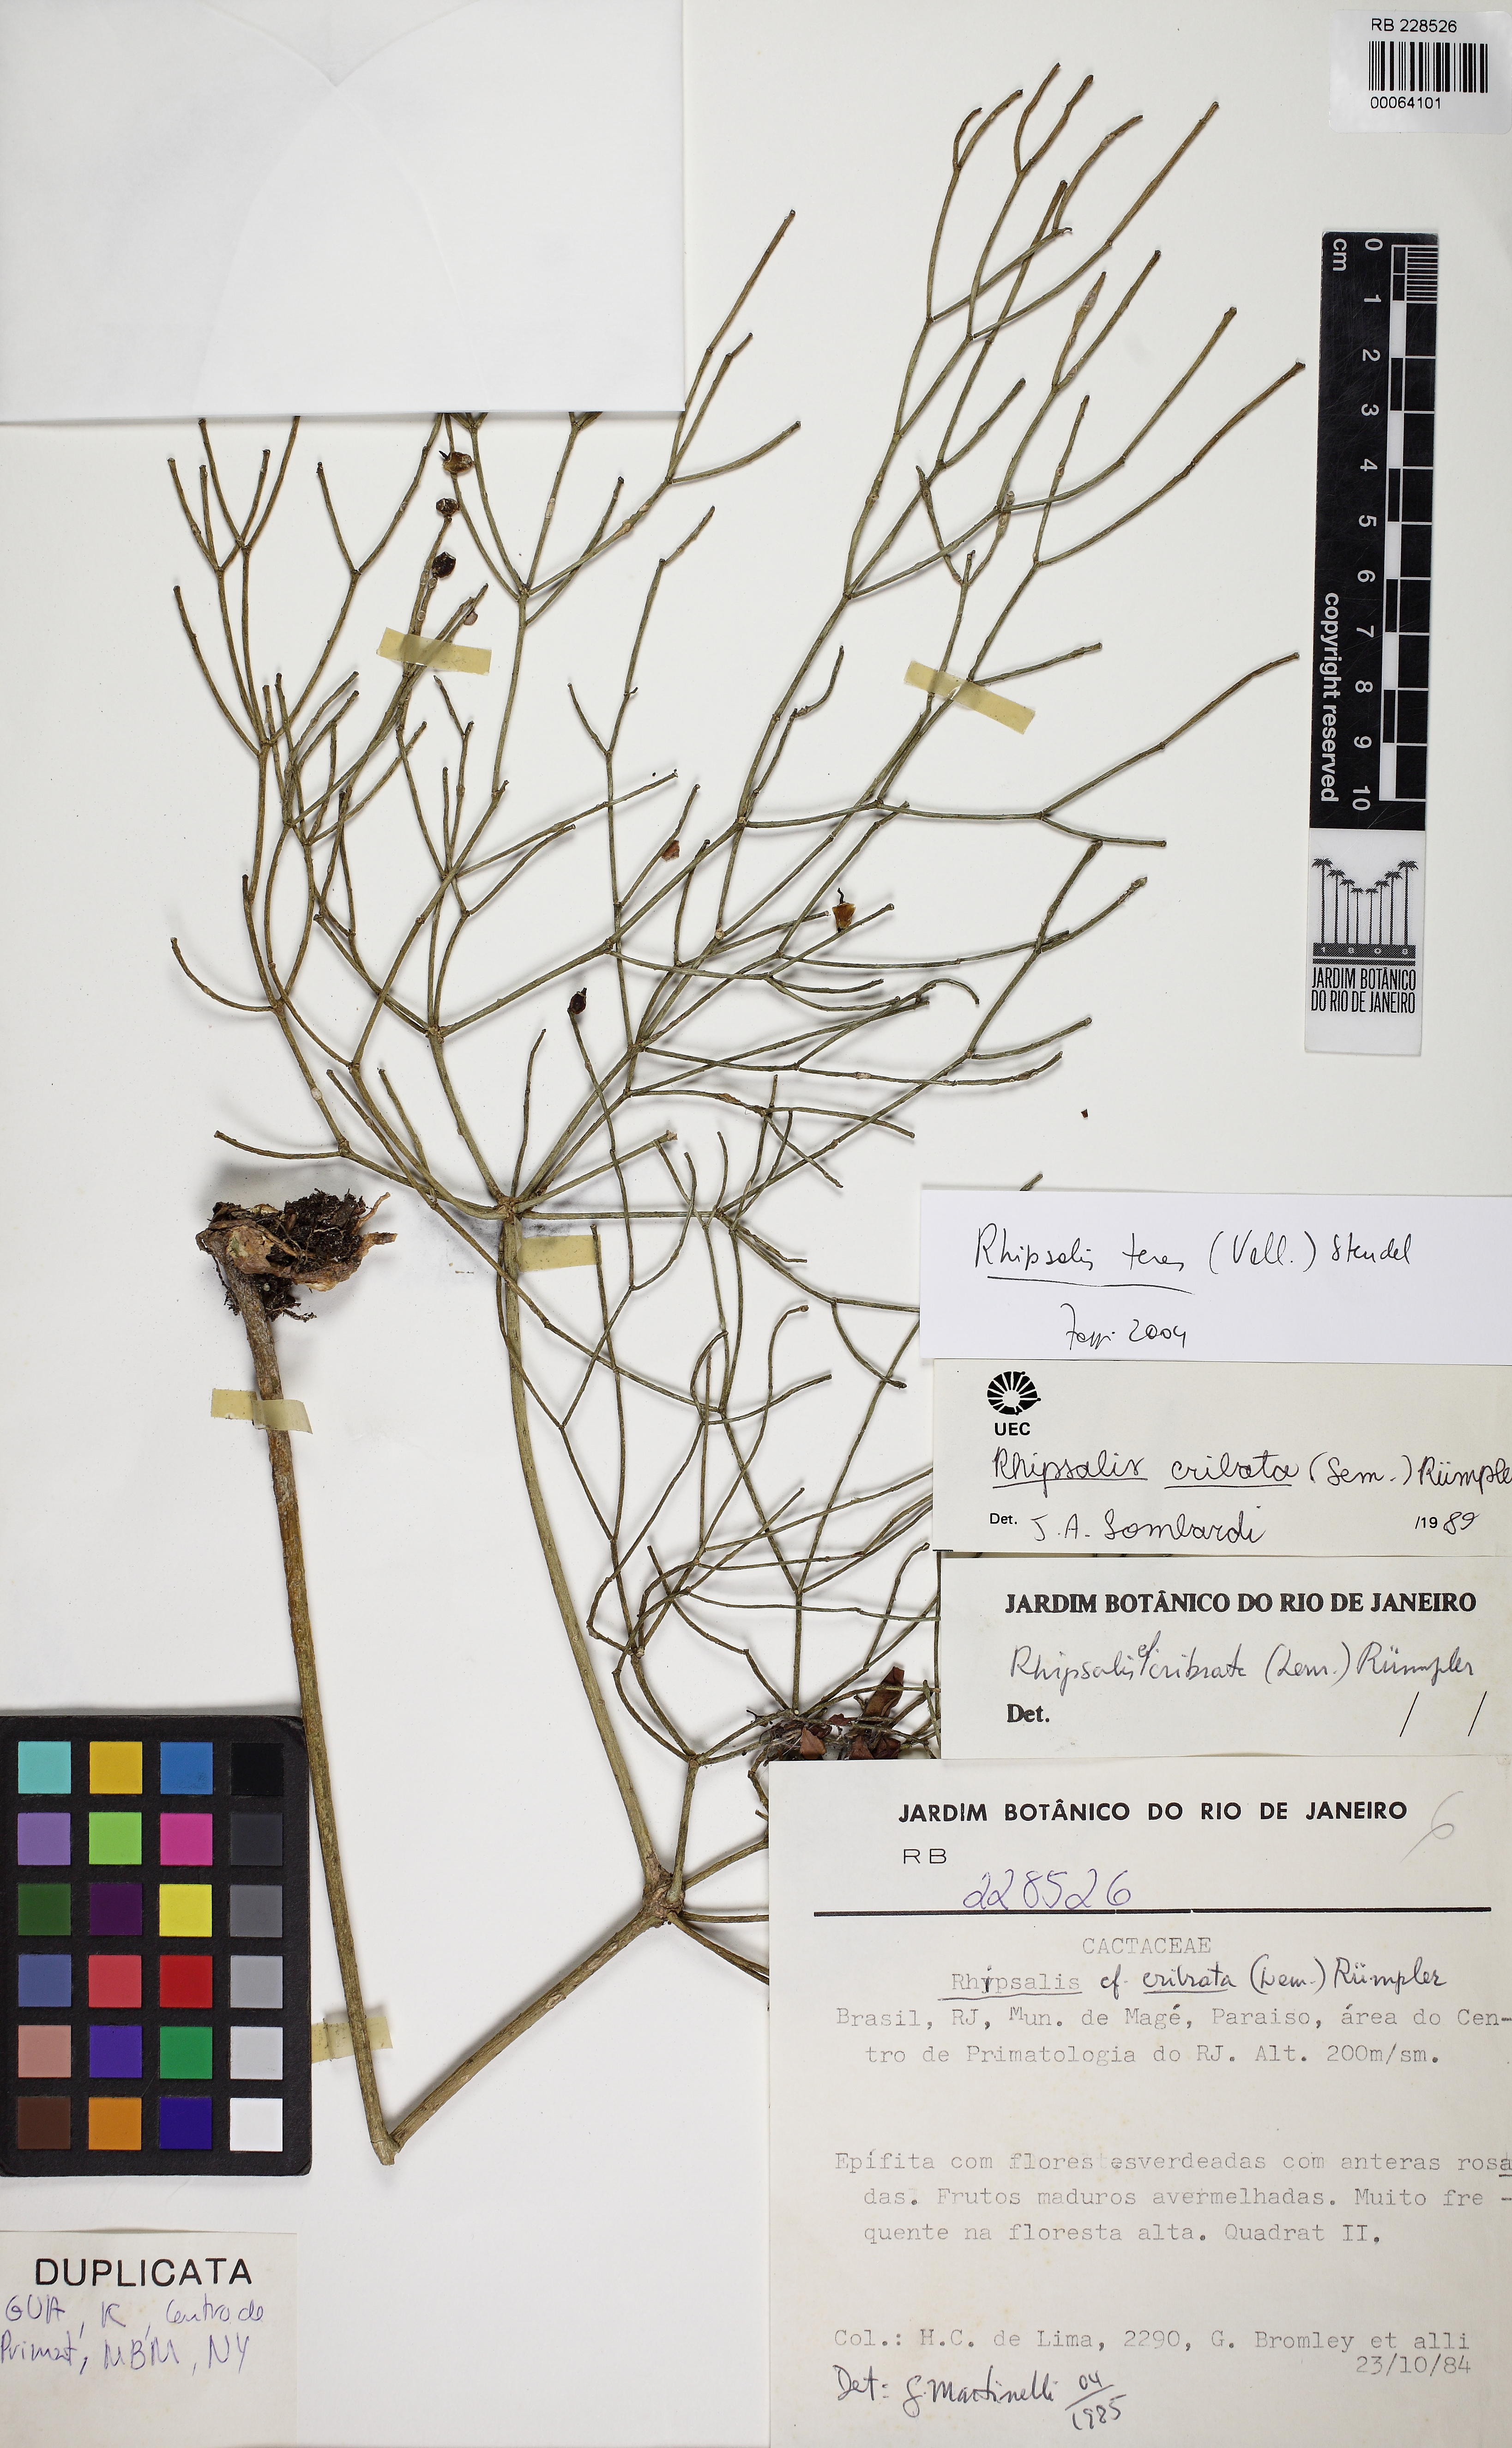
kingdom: Plantae
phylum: Tracheophyta
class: Magnoliopsida
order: Caryophyllales
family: Cactaceae
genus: Rhipsalis
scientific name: Rhipsalis teres
